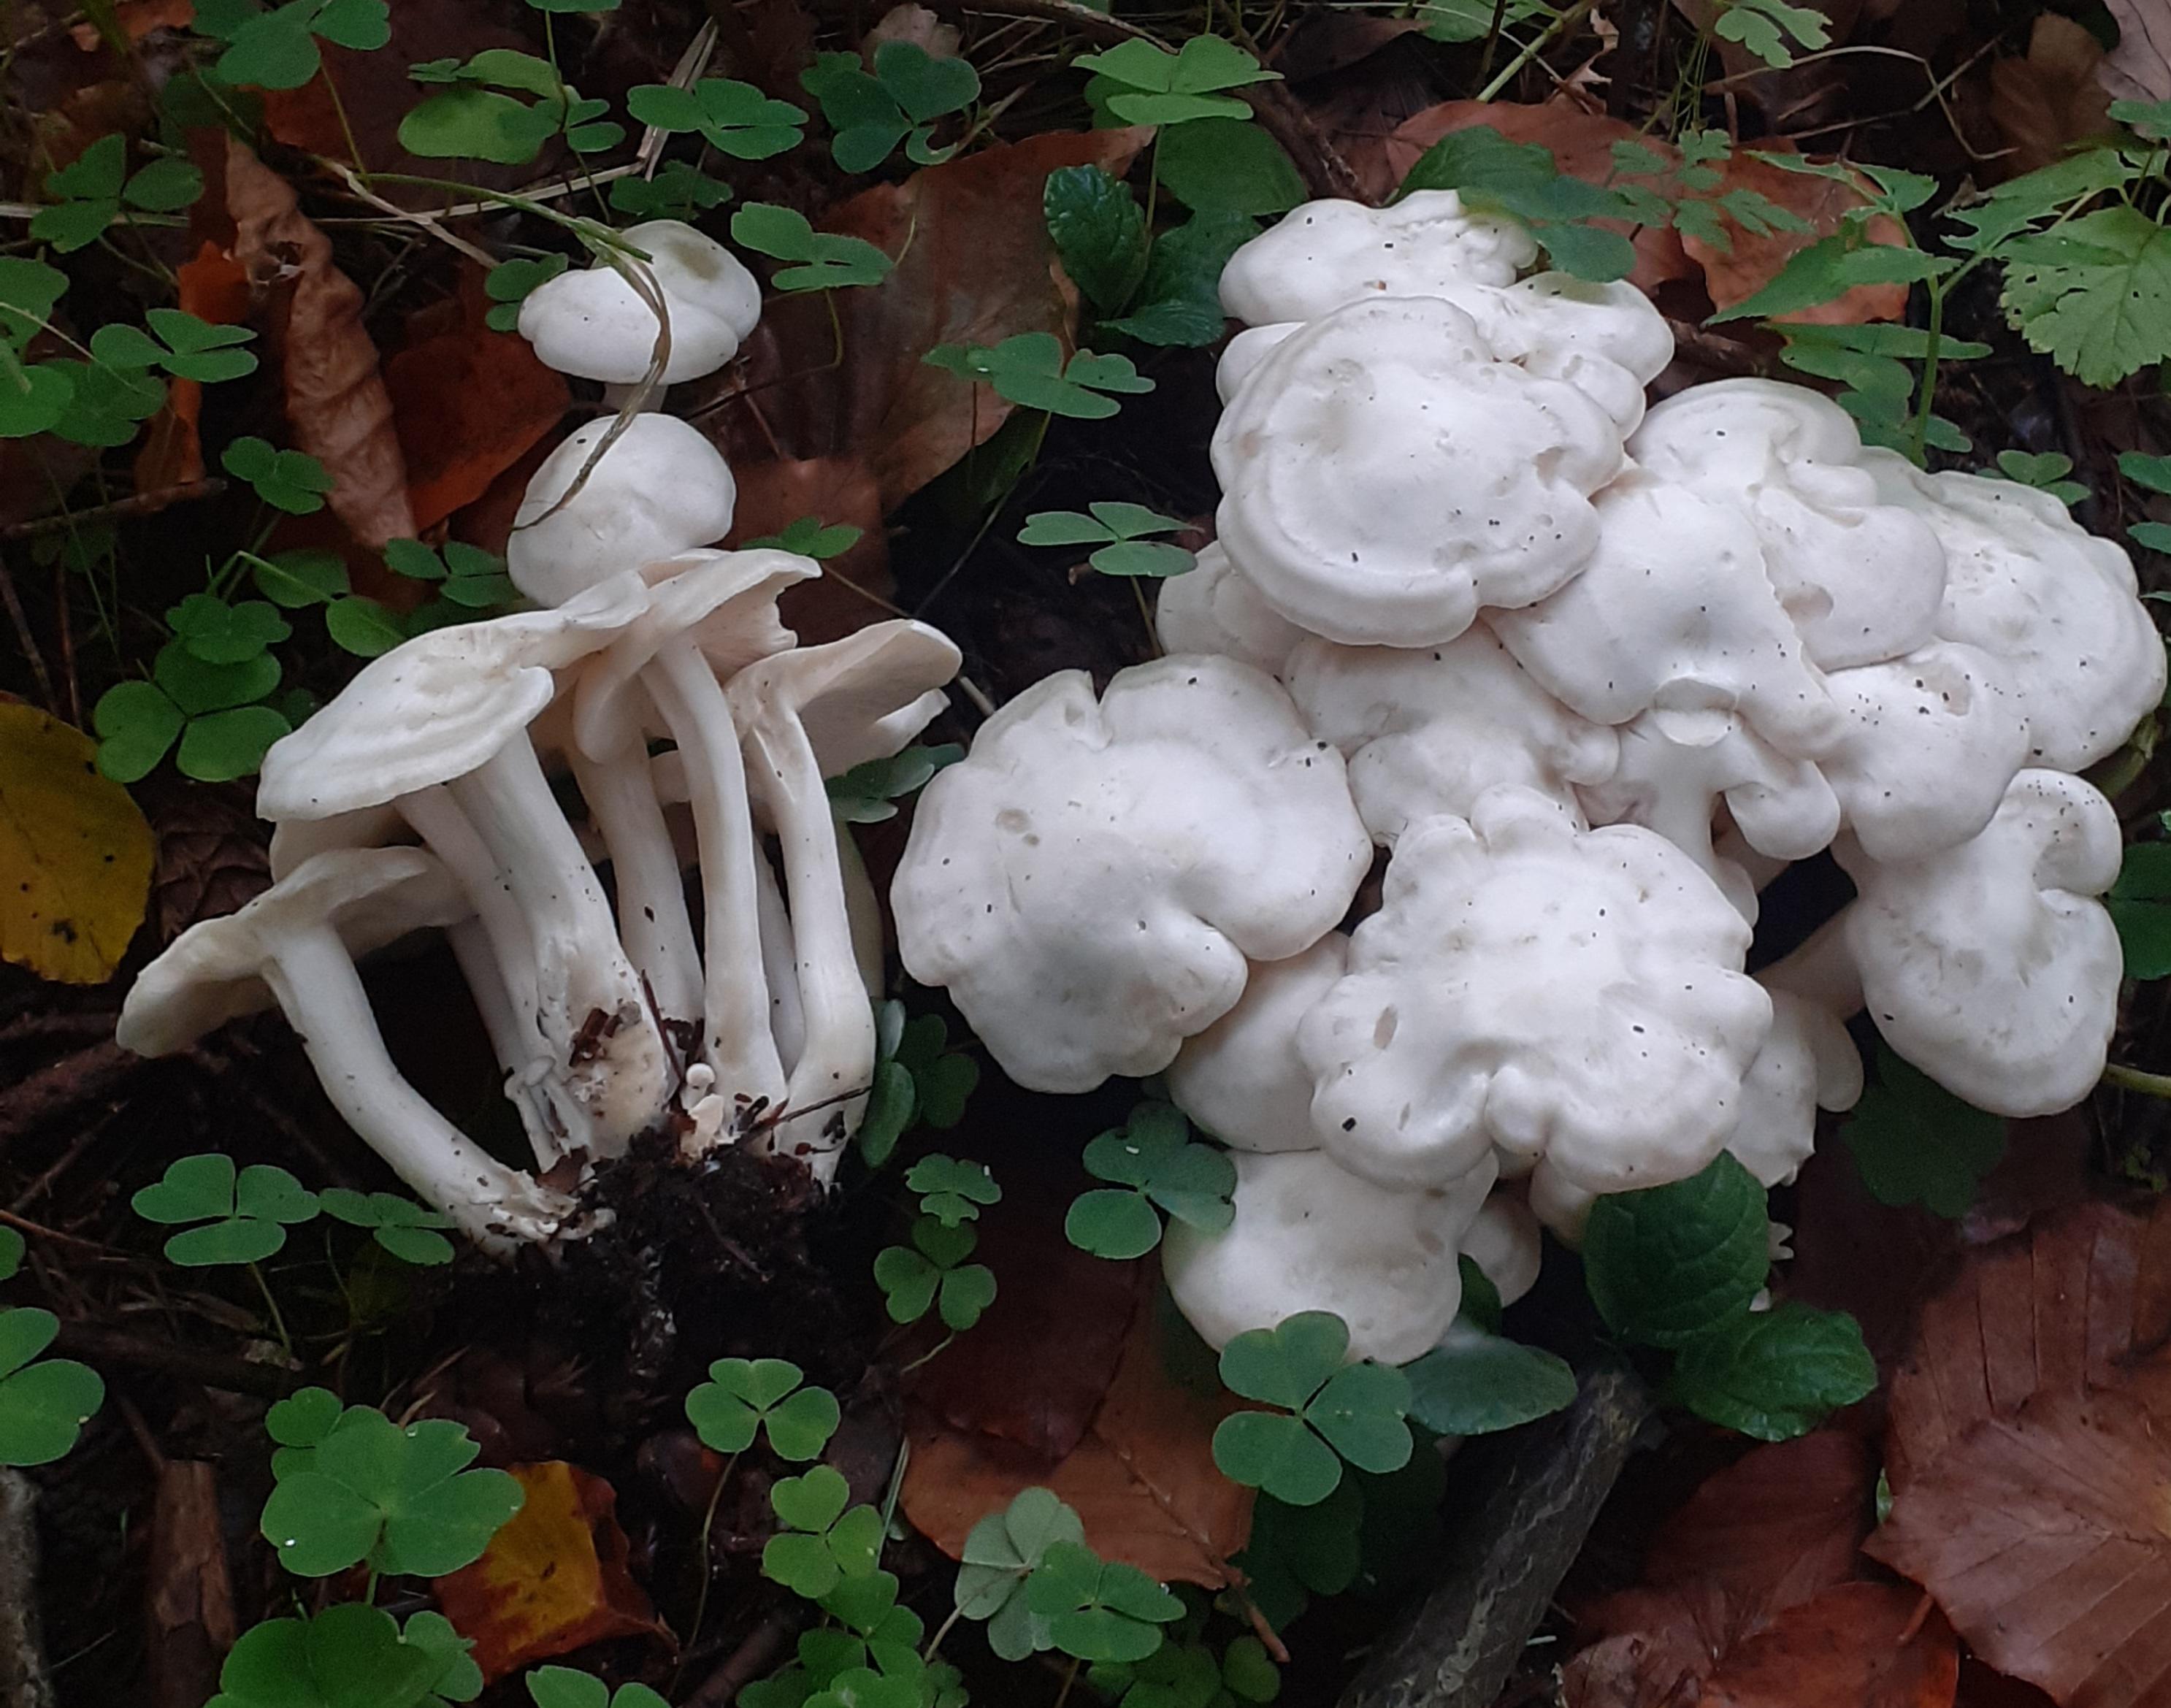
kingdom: Fungi
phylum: Basidiomycota
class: Agaricomycetes
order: Agaricales
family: Tricholomataceae
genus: Leucocybe
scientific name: Leucocybe connata
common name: knippe-tragthat
